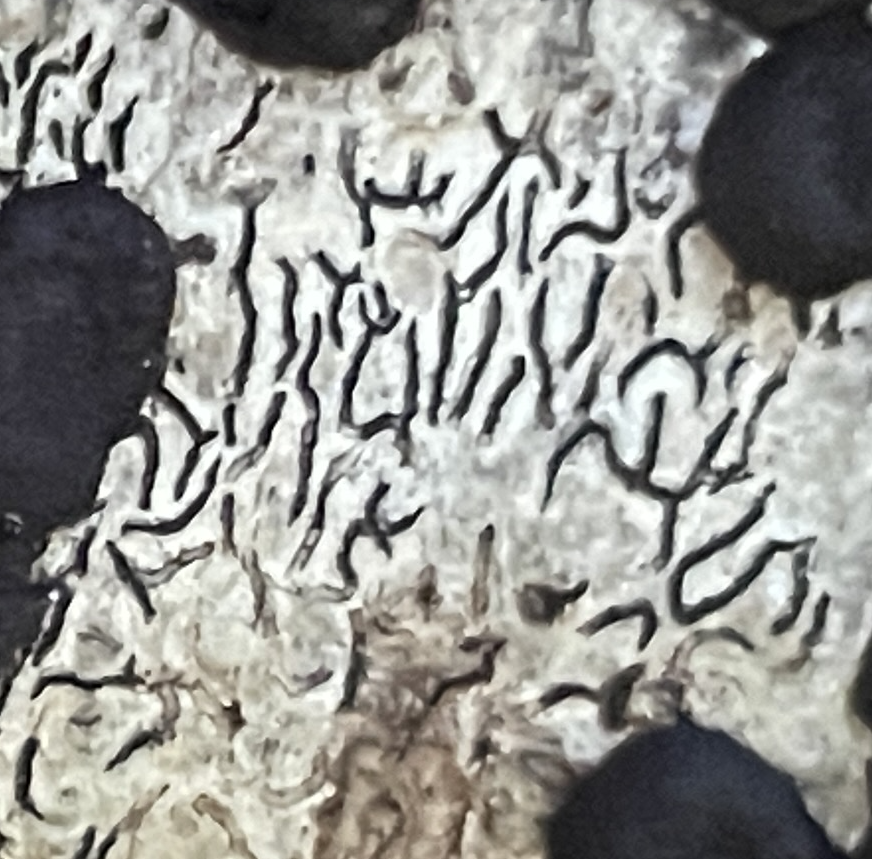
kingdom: Fungi
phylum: Ascomycota
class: Lecanoromycetes
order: Ostropales
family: Graphidaceae
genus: Graphis
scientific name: Graphis scripta
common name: almindelig skriftlav
